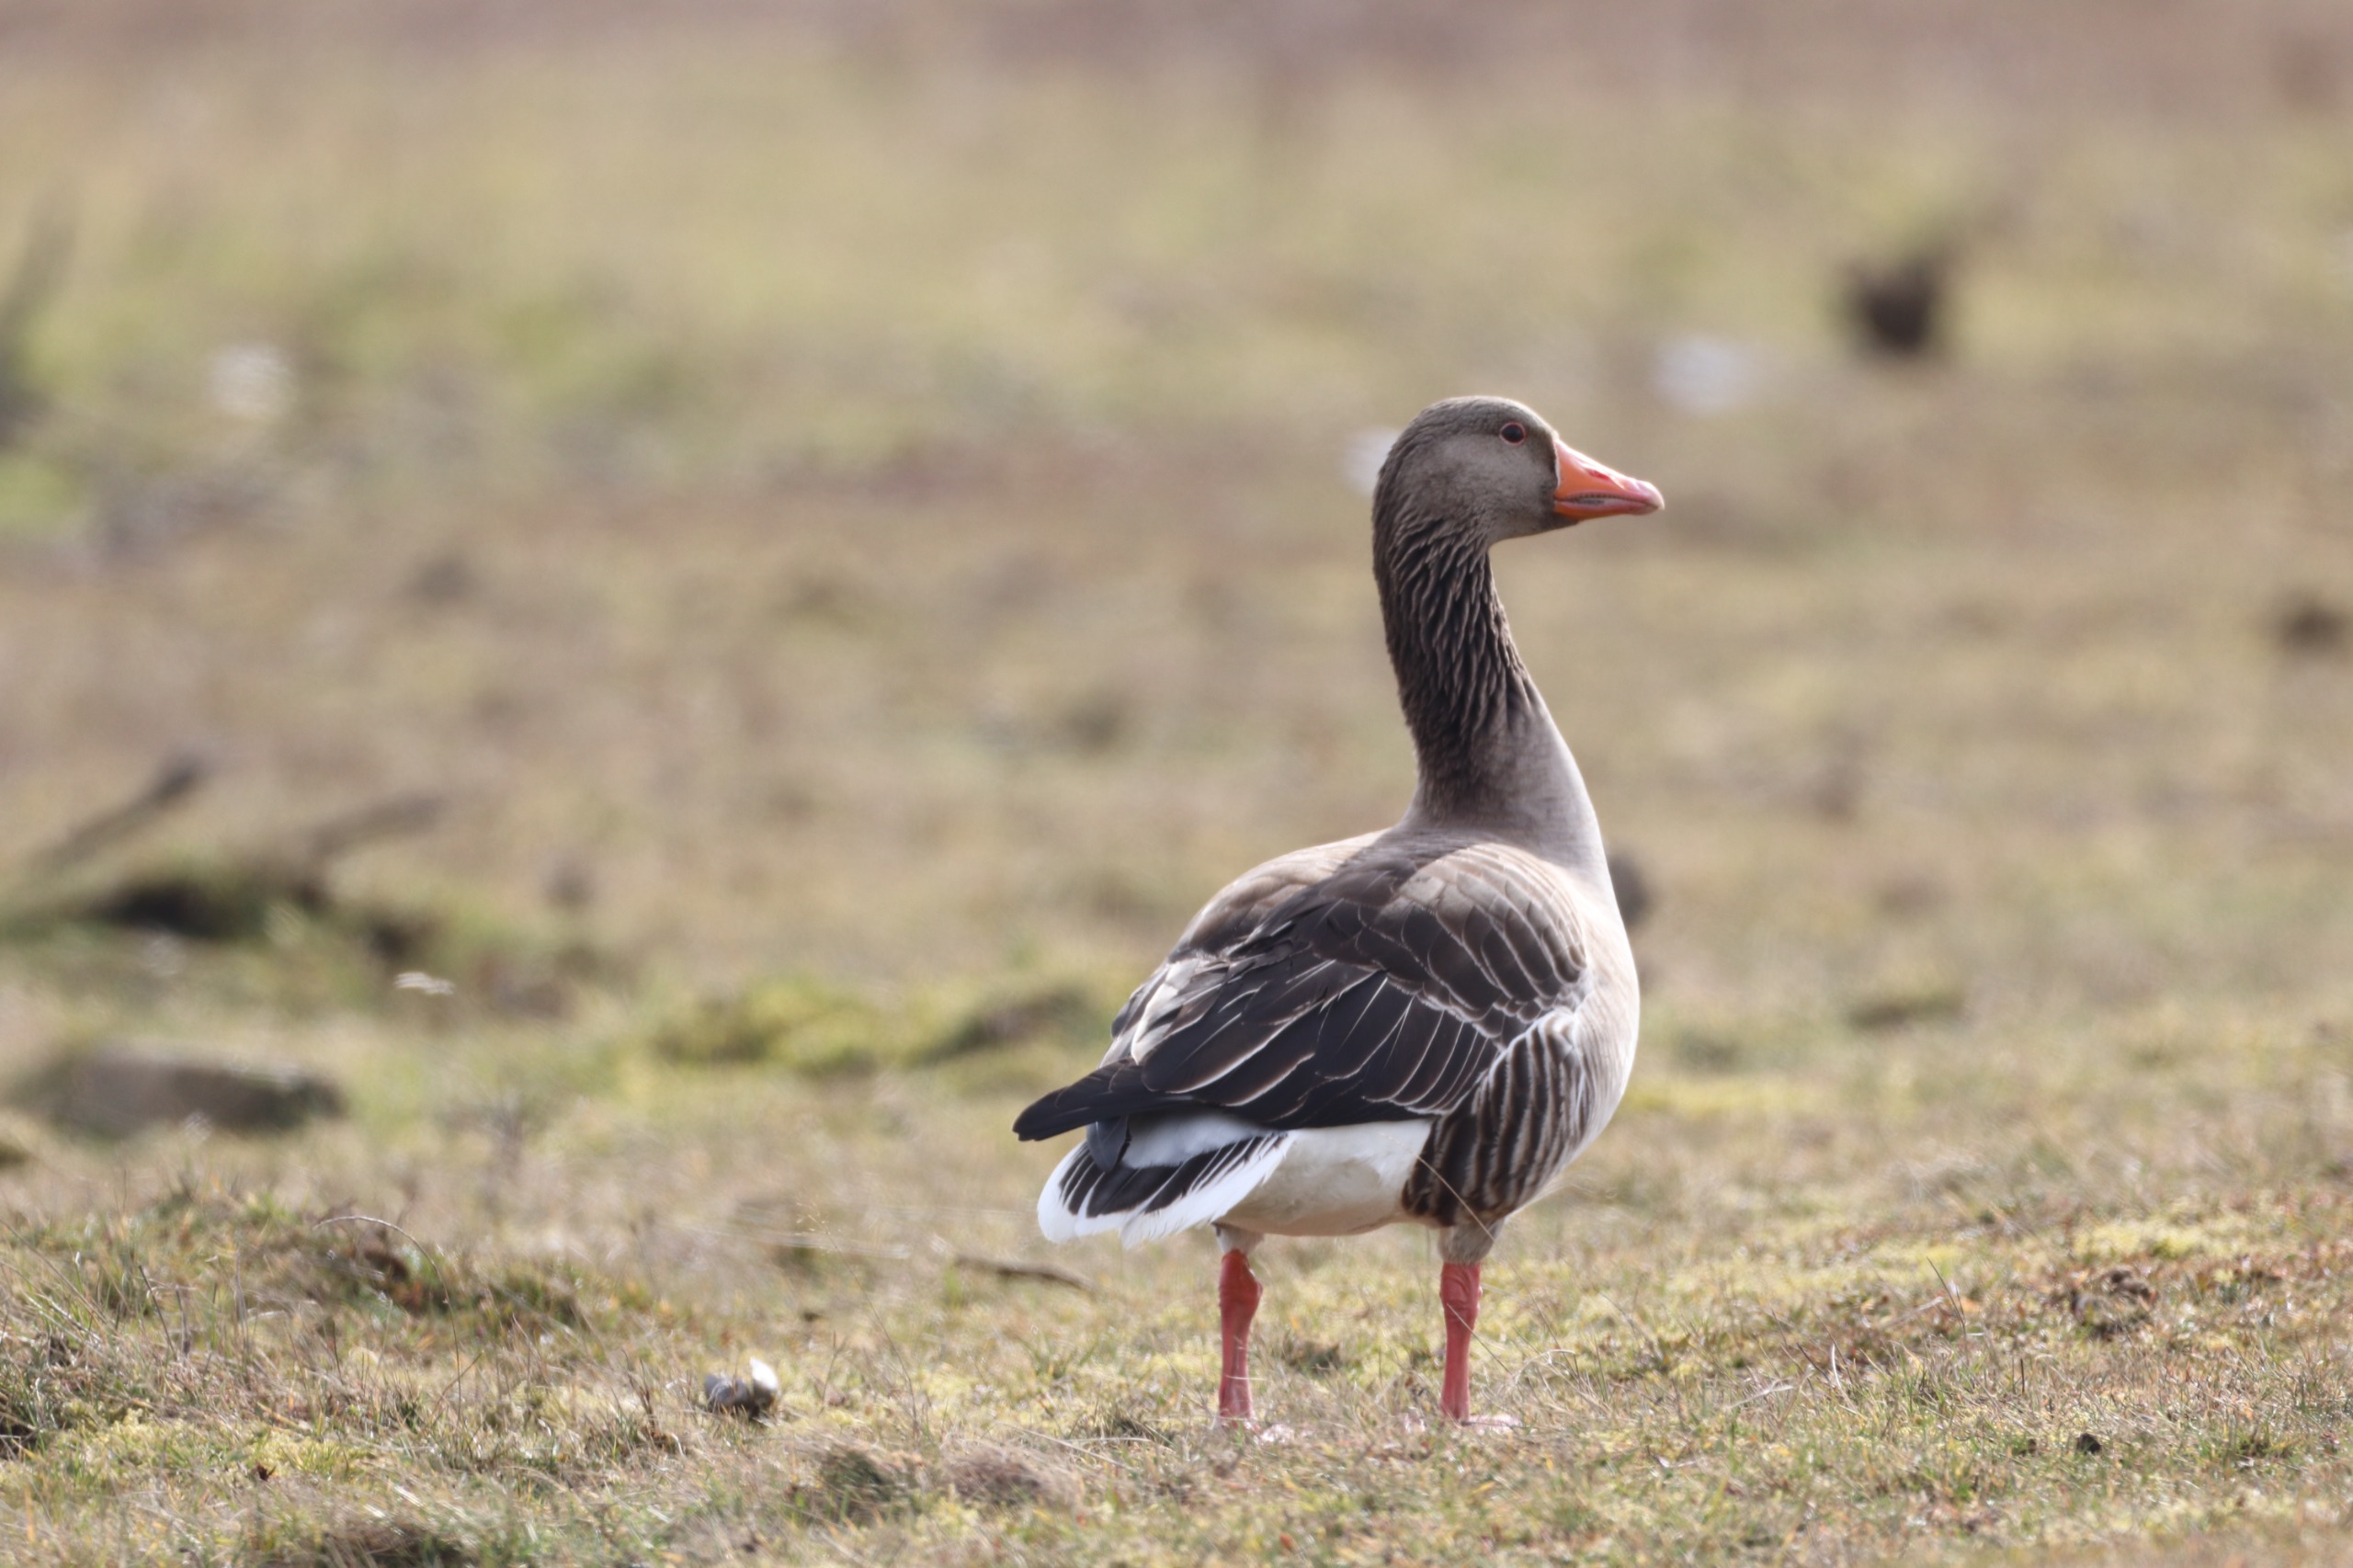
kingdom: Animalia
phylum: Chordata
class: Aves
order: Anseriformes
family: Anatidae
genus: Anser
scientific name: Anser anser
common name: Grågås
